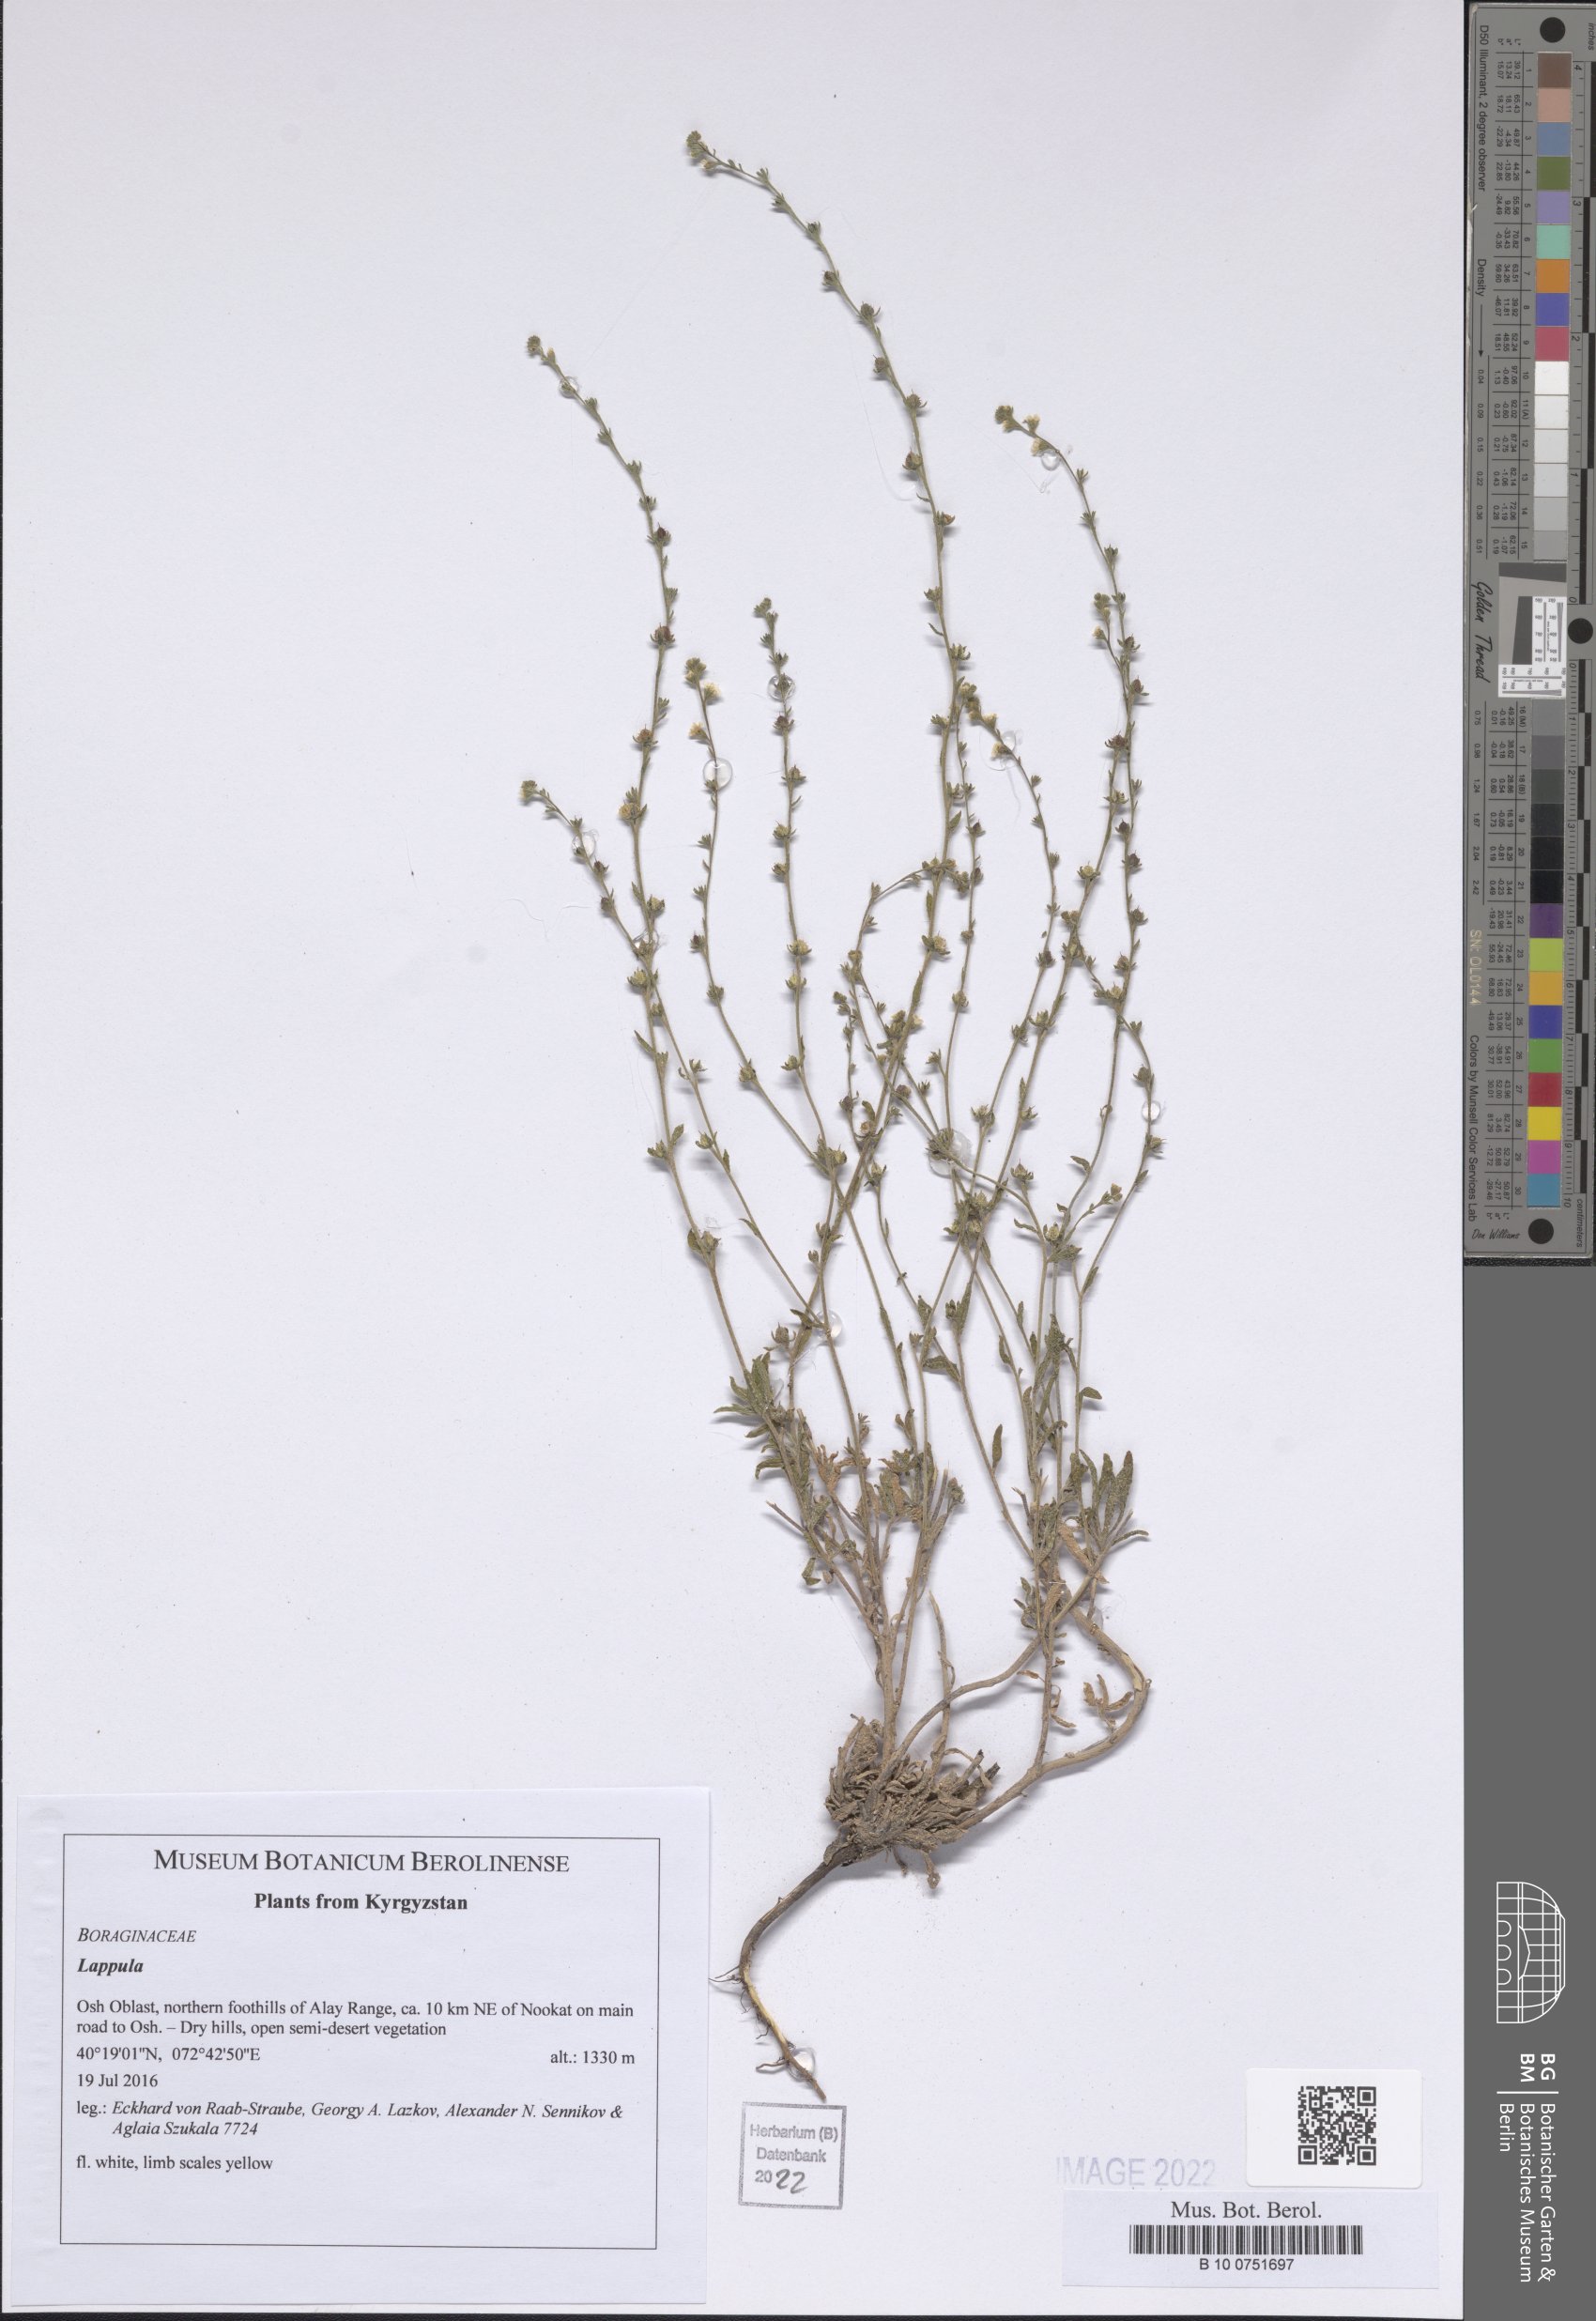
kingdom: Plantae
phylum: Tracheophyta
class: Magnoliopsida
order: Boraginales
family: Boraginaceae
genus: Lappula
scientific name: Lappula
